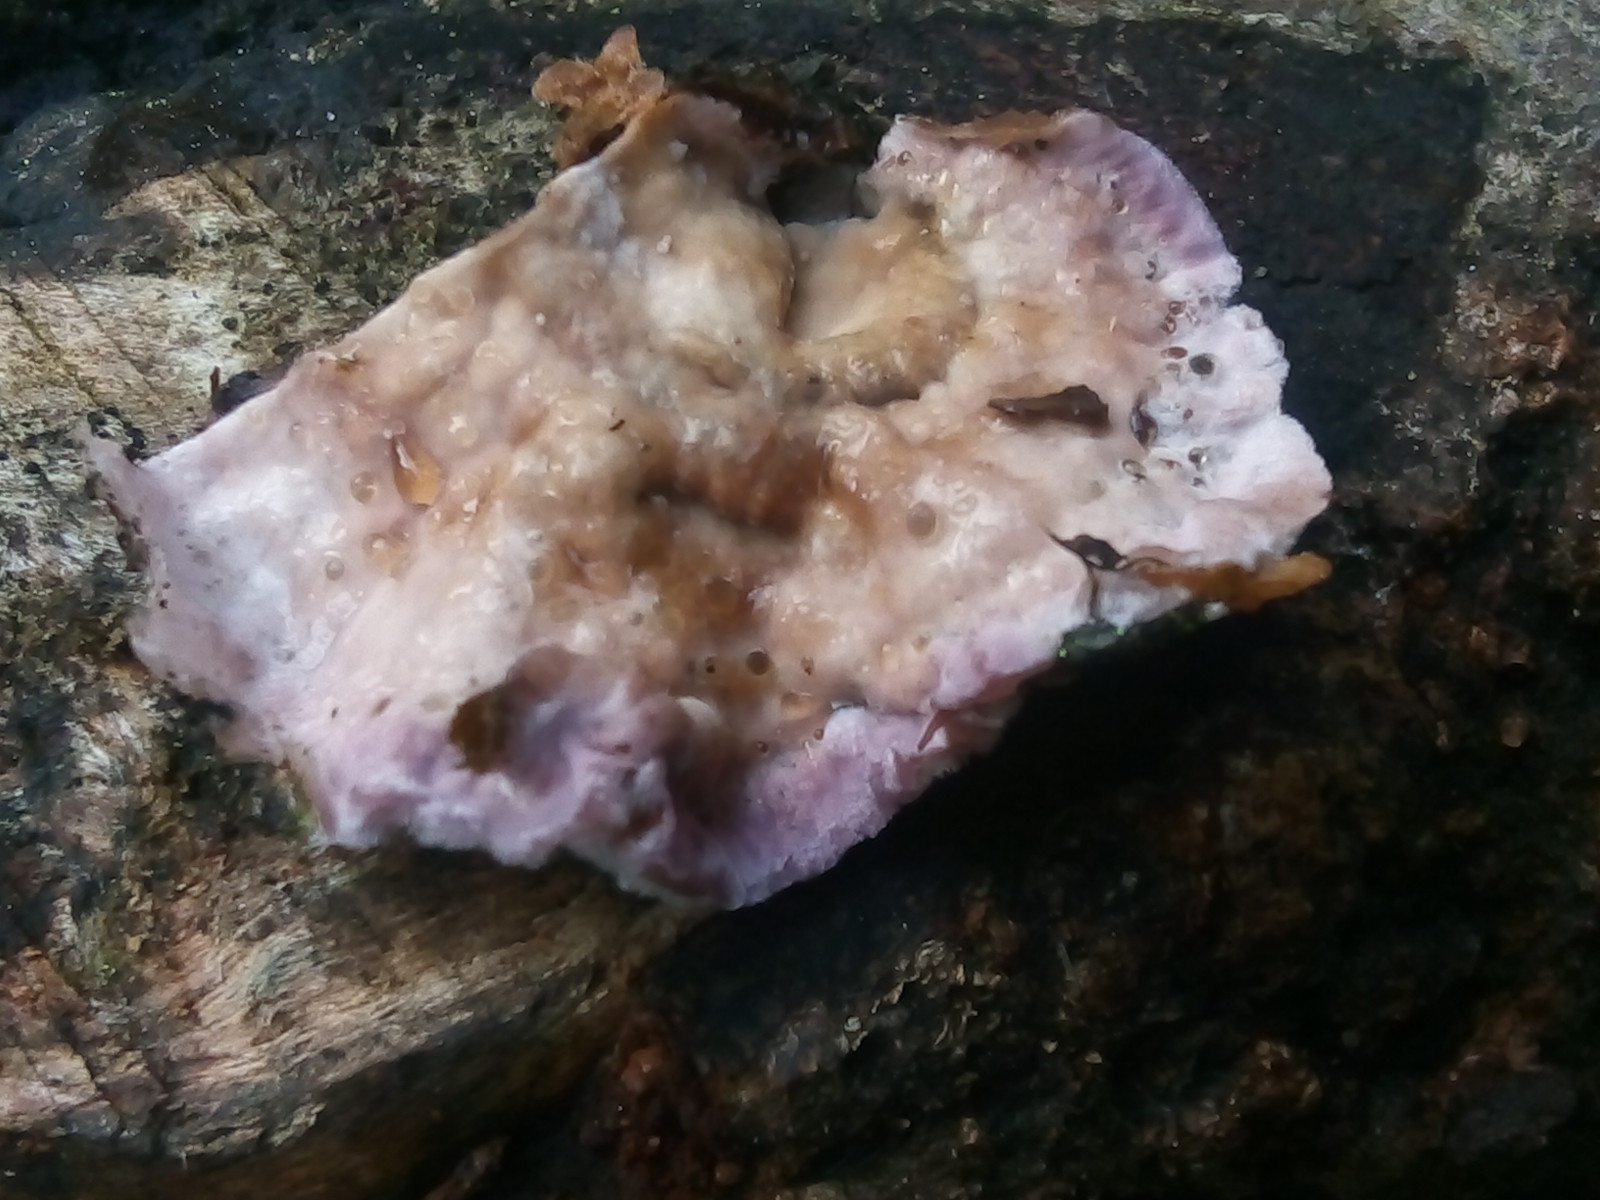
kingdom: Fungi
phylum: Basidiomycota
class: Agaricomycetes
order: Agaricales
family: Cyphellaceae
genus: Chondrostereum
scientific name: Chondrostereum purpureum
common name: purpurlædersvamp
